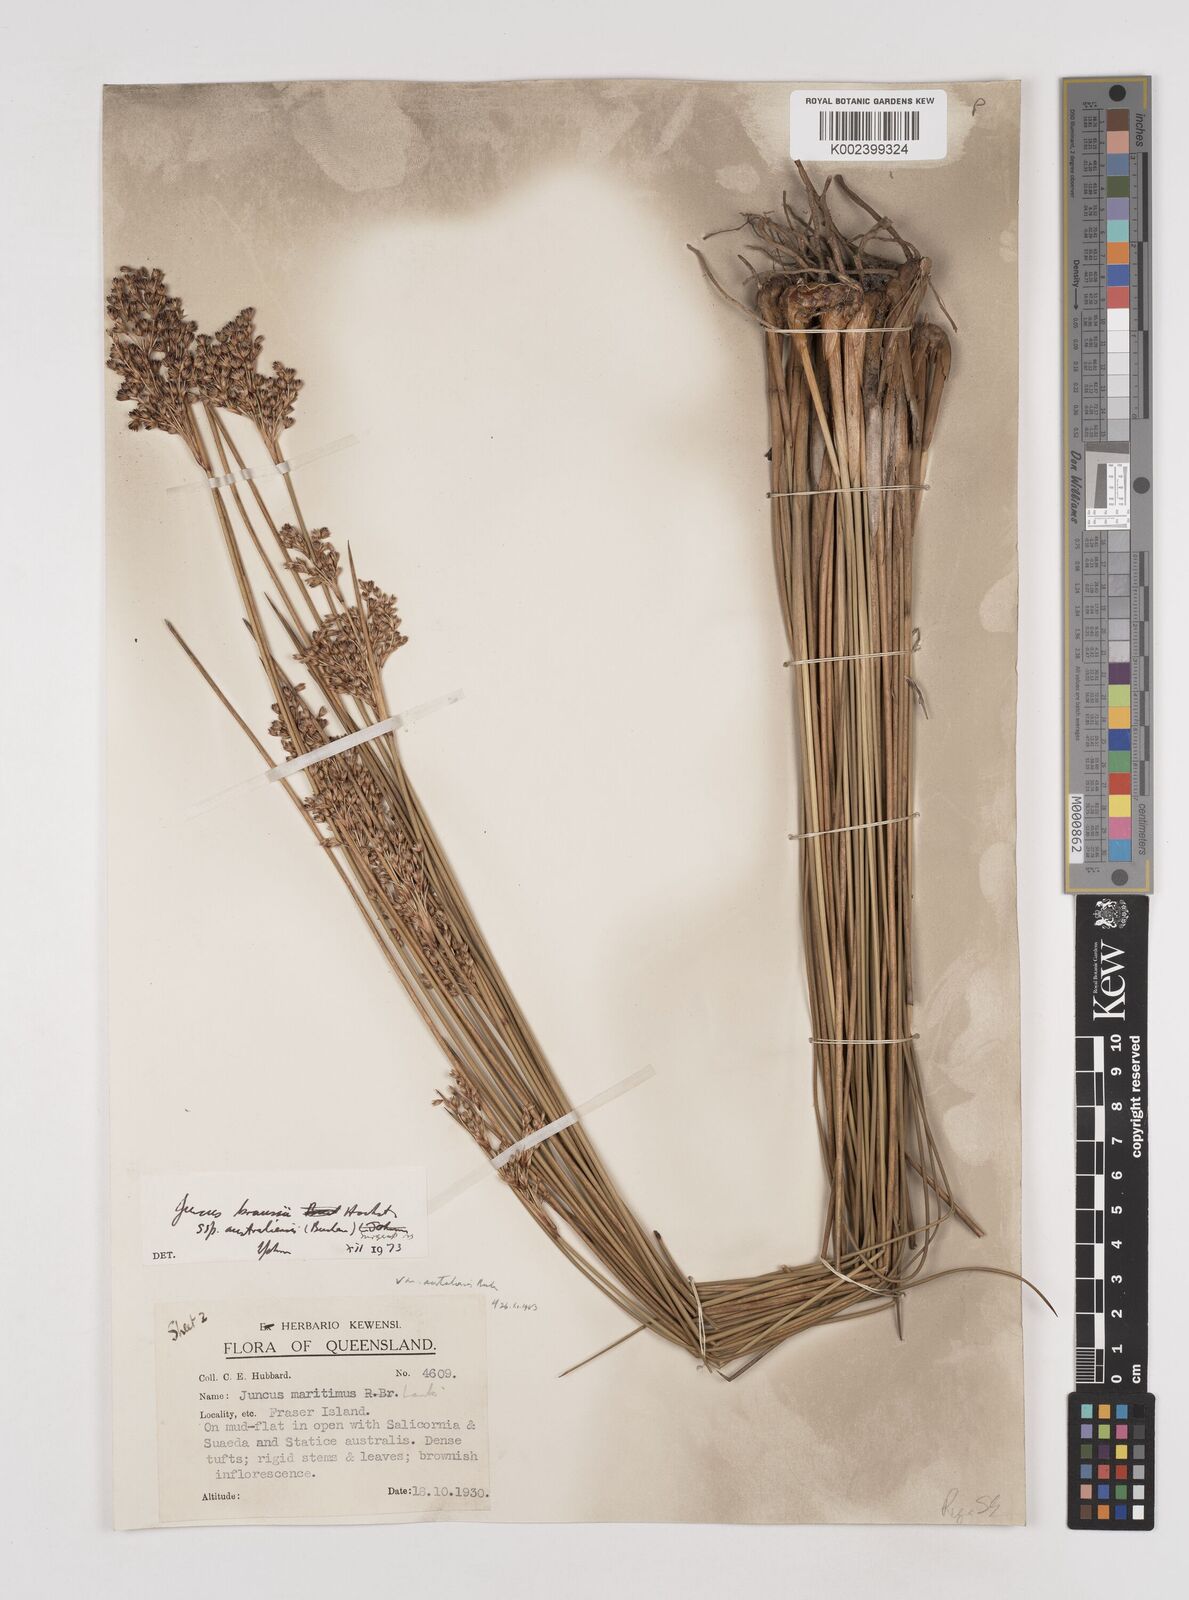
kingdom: Plantae
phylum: Tracheophyta
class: Liliopsida
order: Poales
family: Juncaceae
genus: Juncus
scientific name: Juncus kraussii
